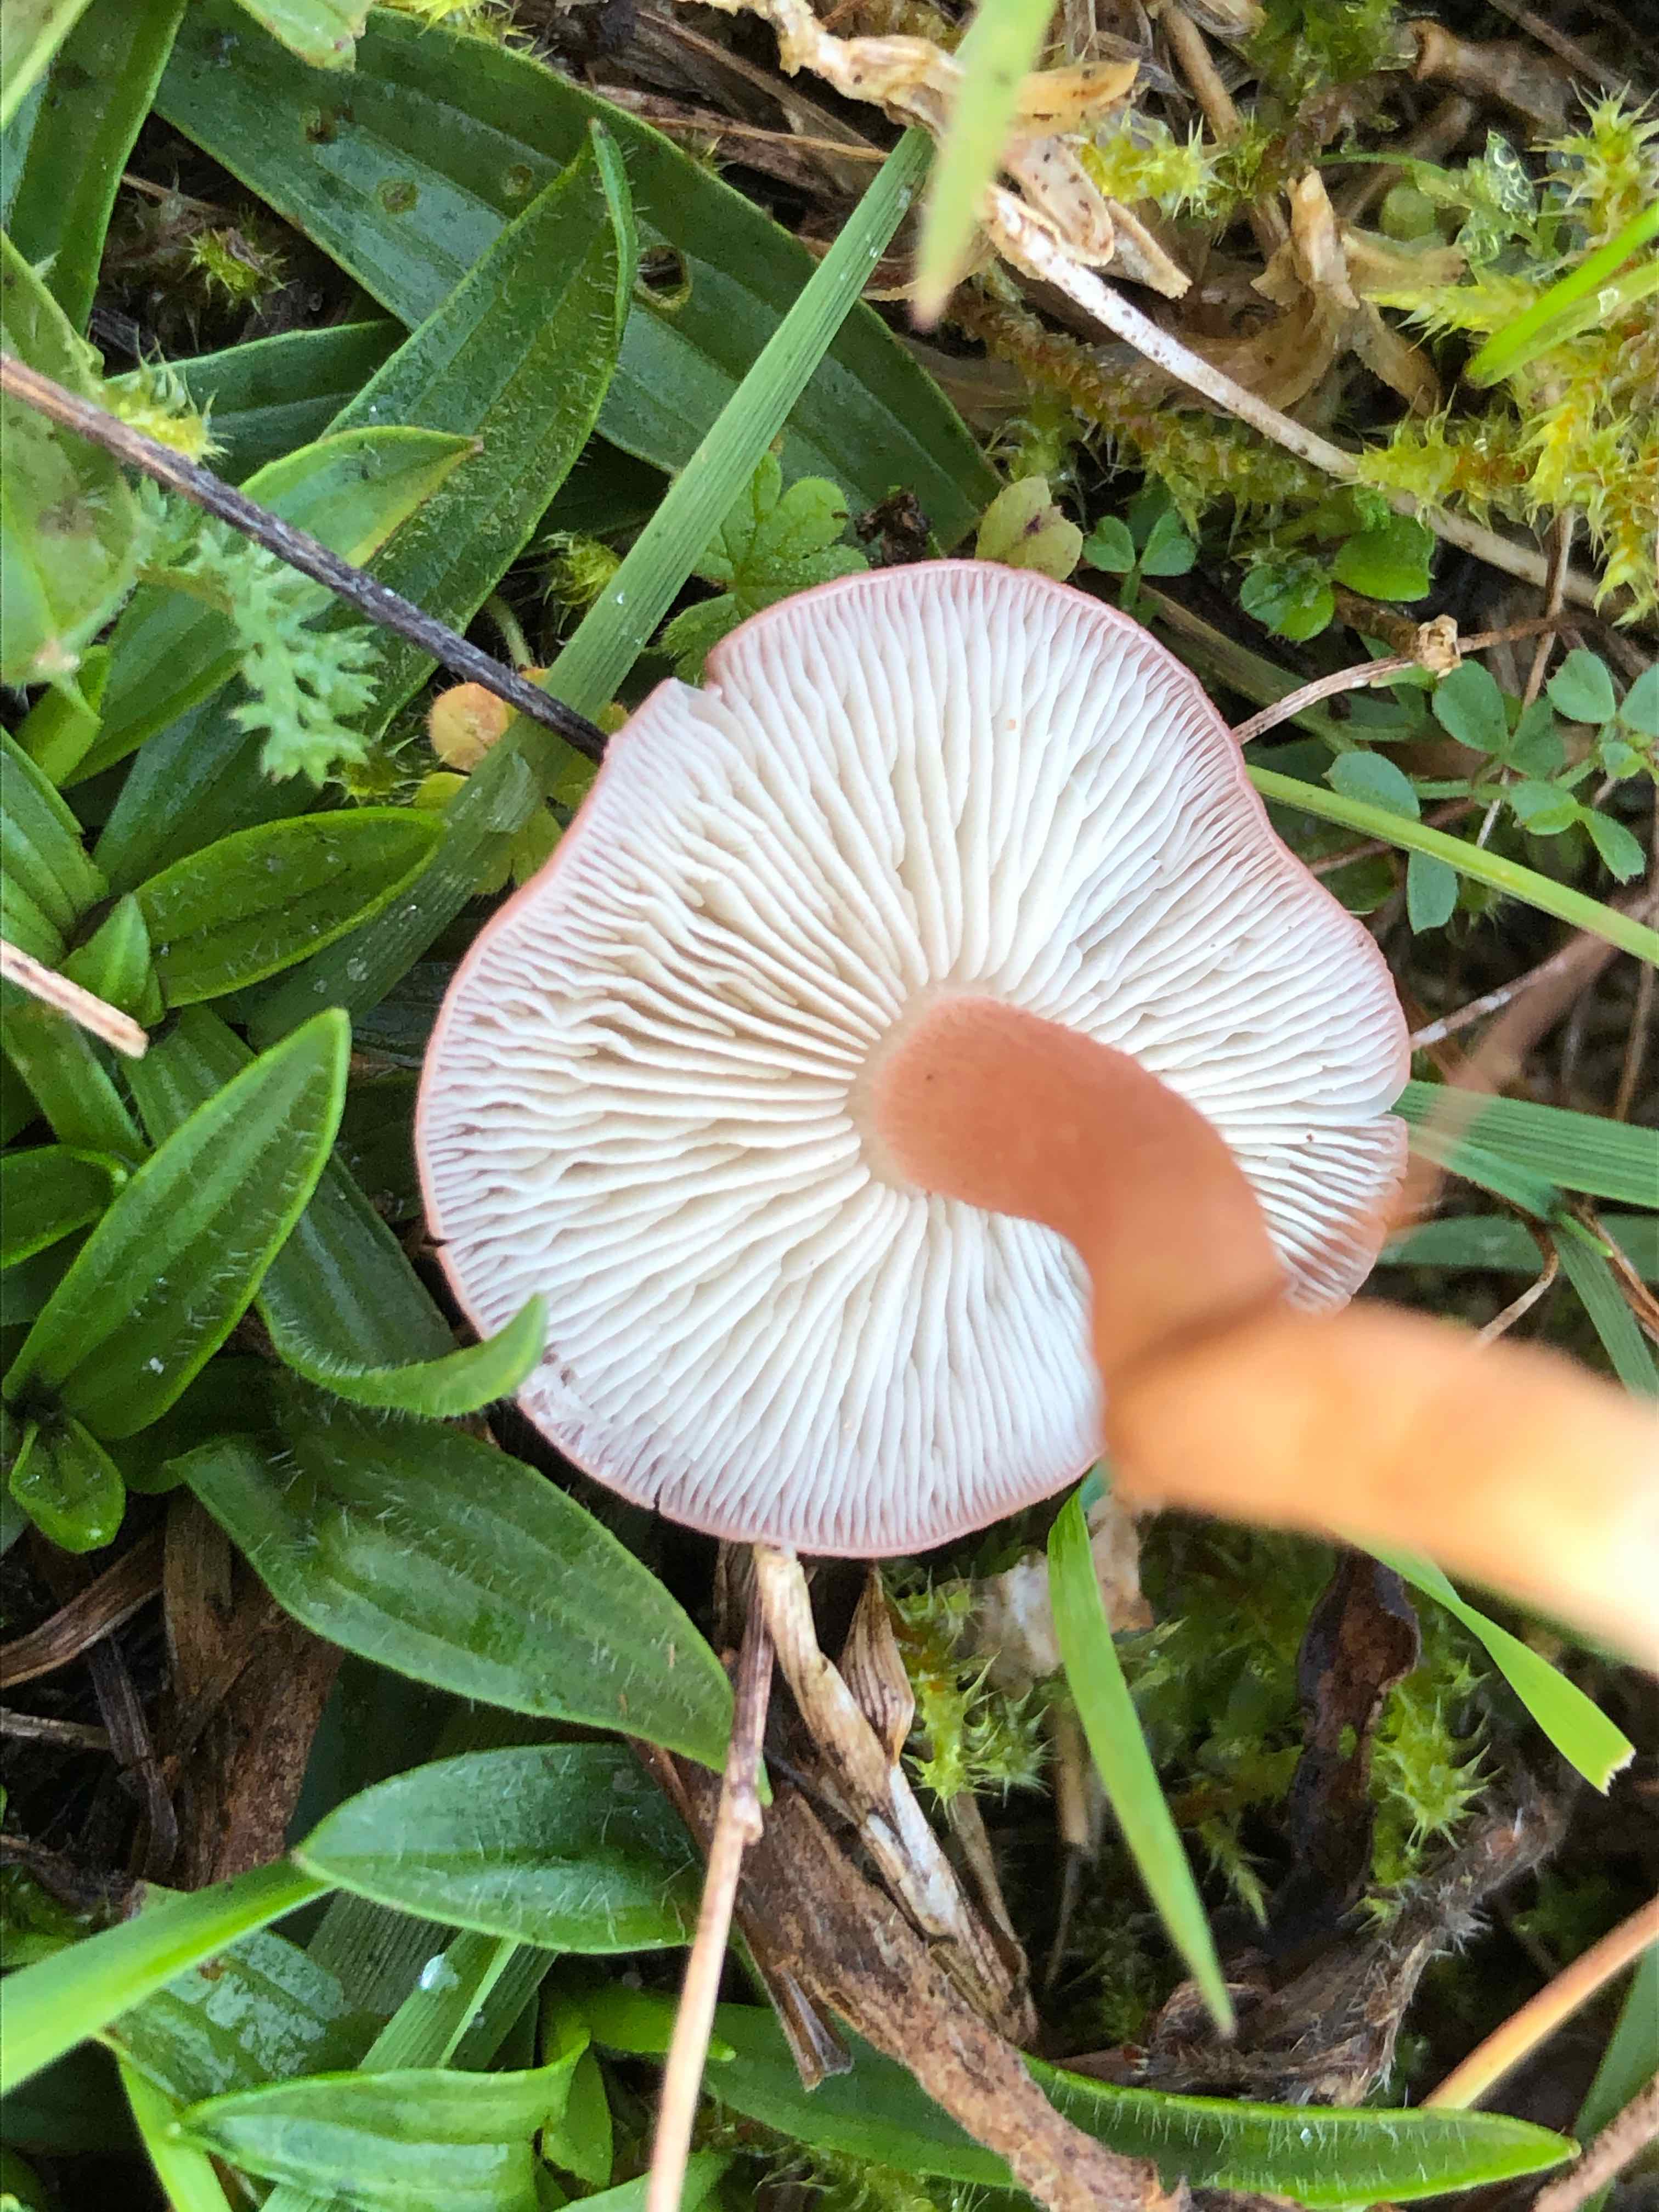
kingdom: Fungi
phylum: Basidiomycota
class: Agaricomycetes
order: Agaricales
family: Lyophyllaceae
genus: Calocybe
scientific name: Calocybe carnea
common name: rosa fagerhat
